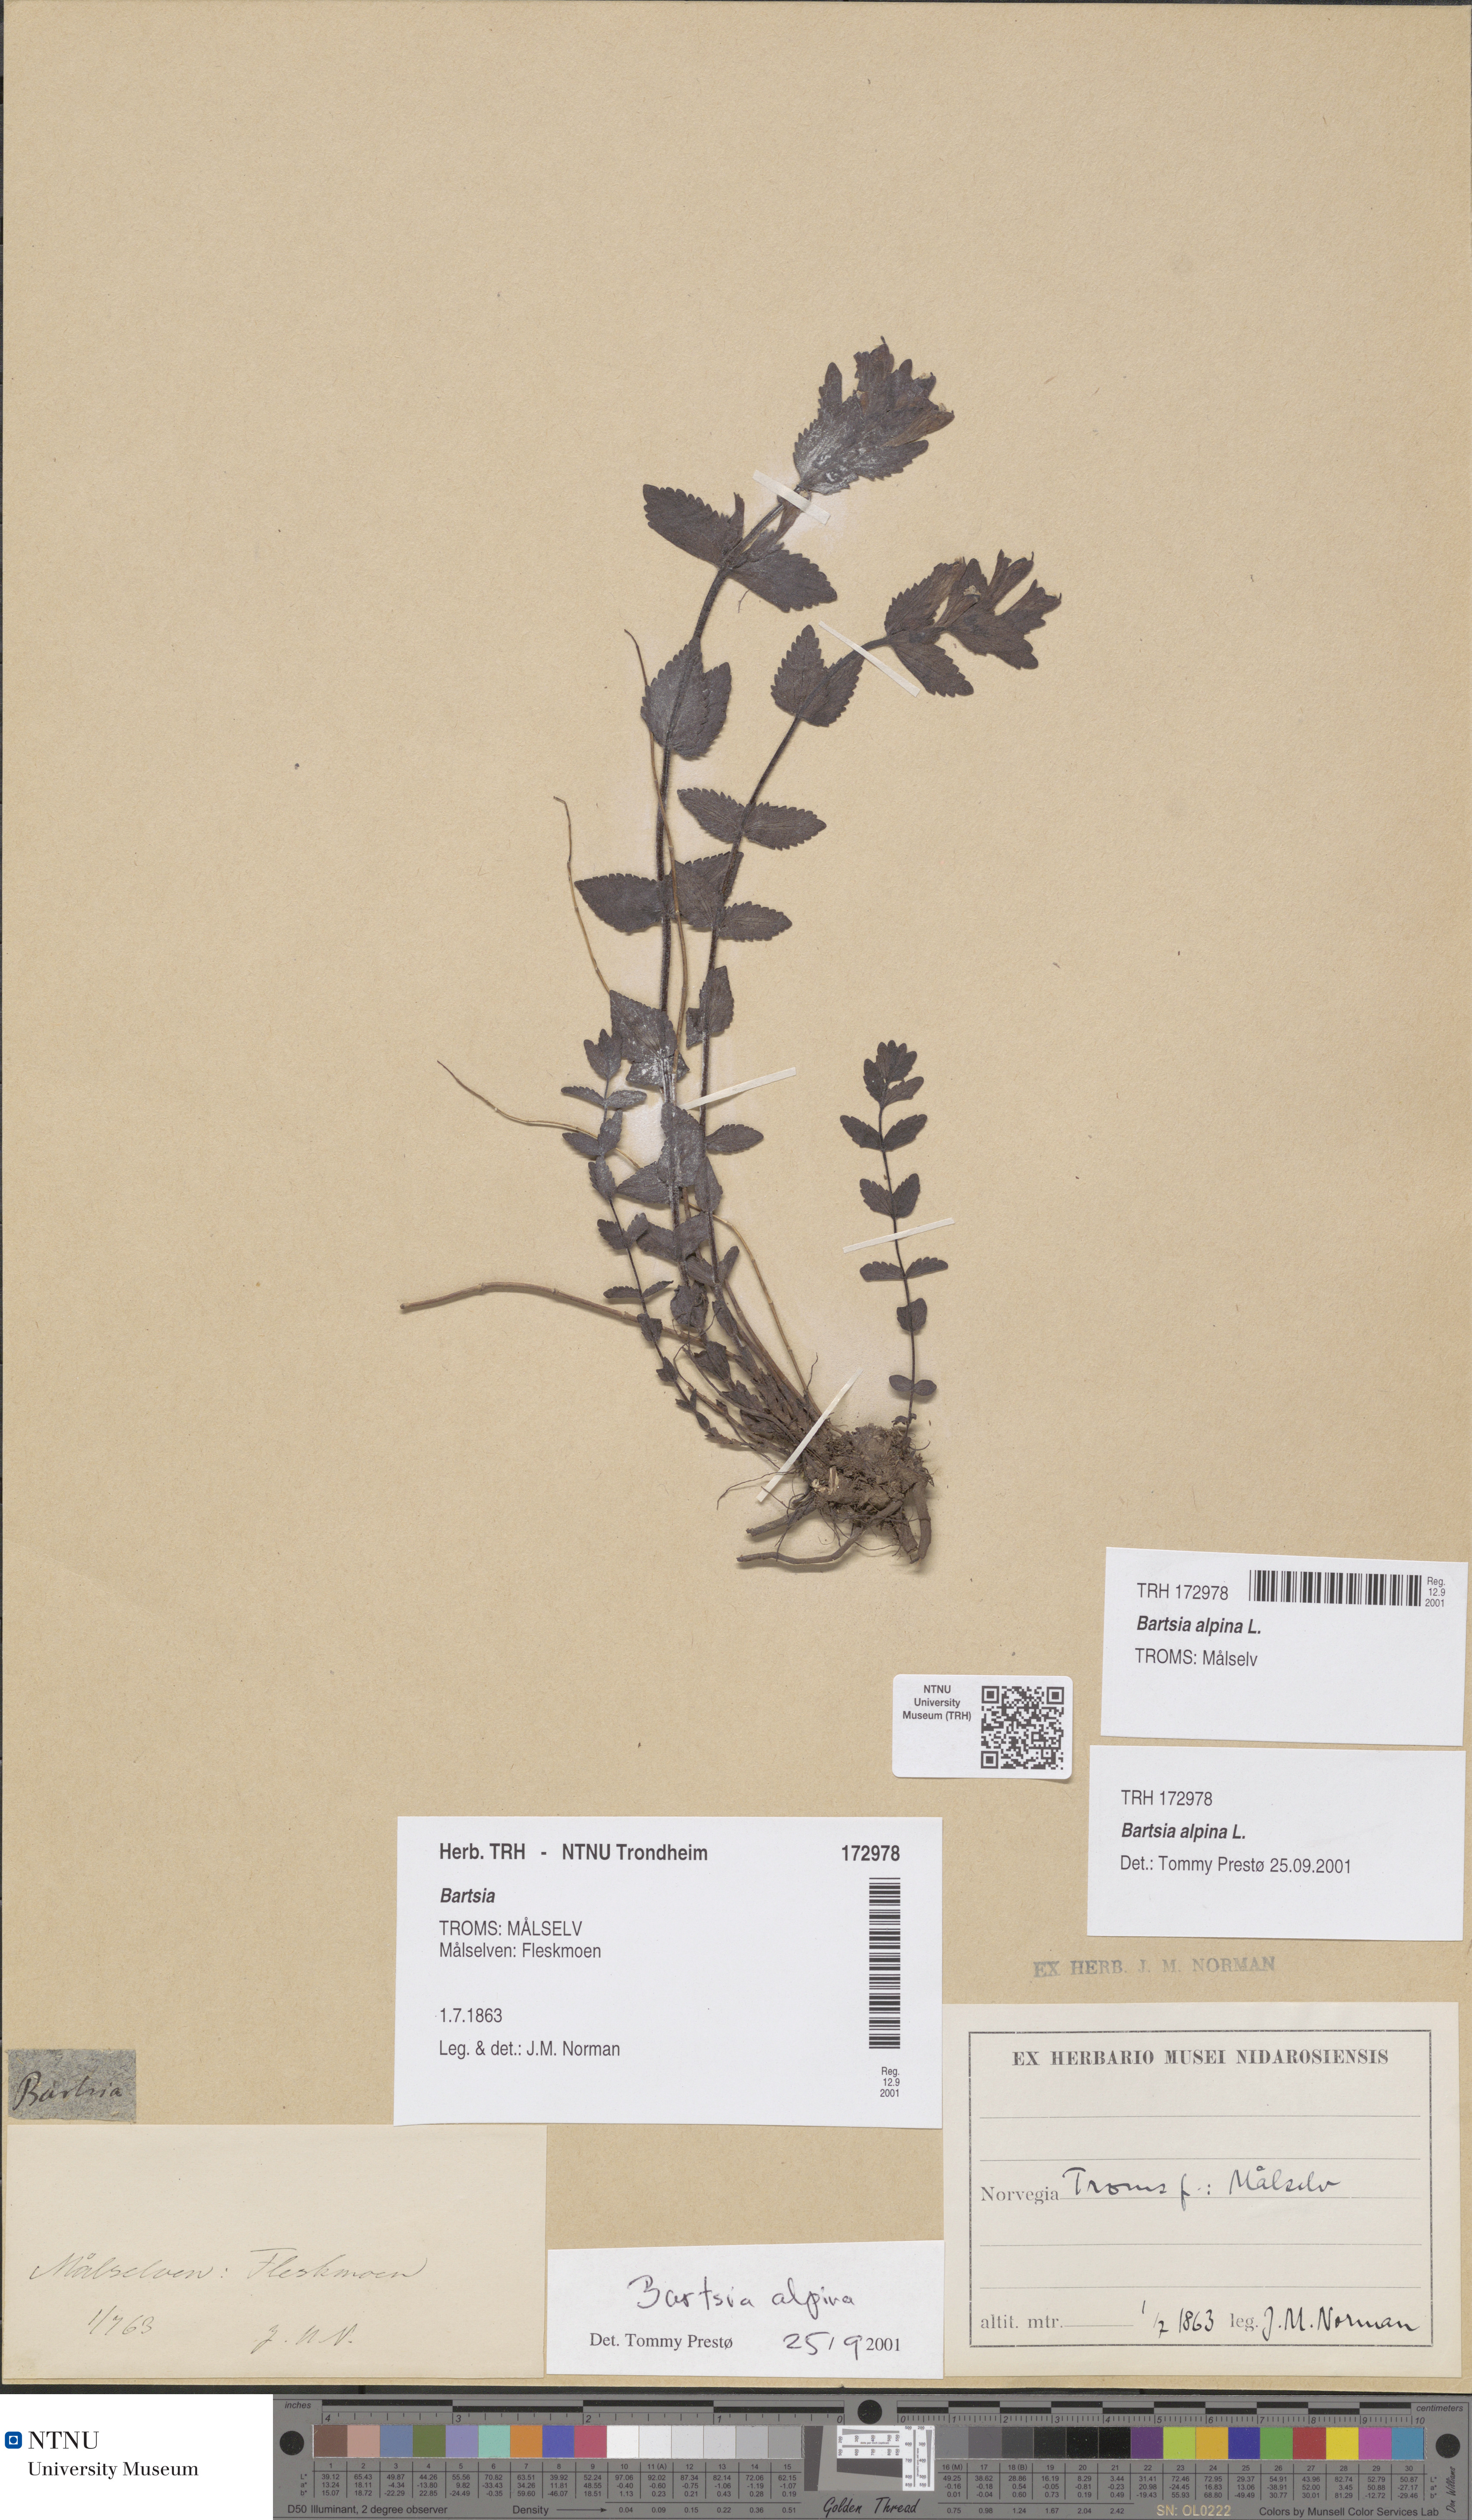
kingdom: Plantae
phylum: Tracheophyta
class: Magnoliopsida
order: Lamiales
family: Orobanchaceae
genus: Bartsia
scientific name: Bartsia alpina
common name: Alpine bartsia
